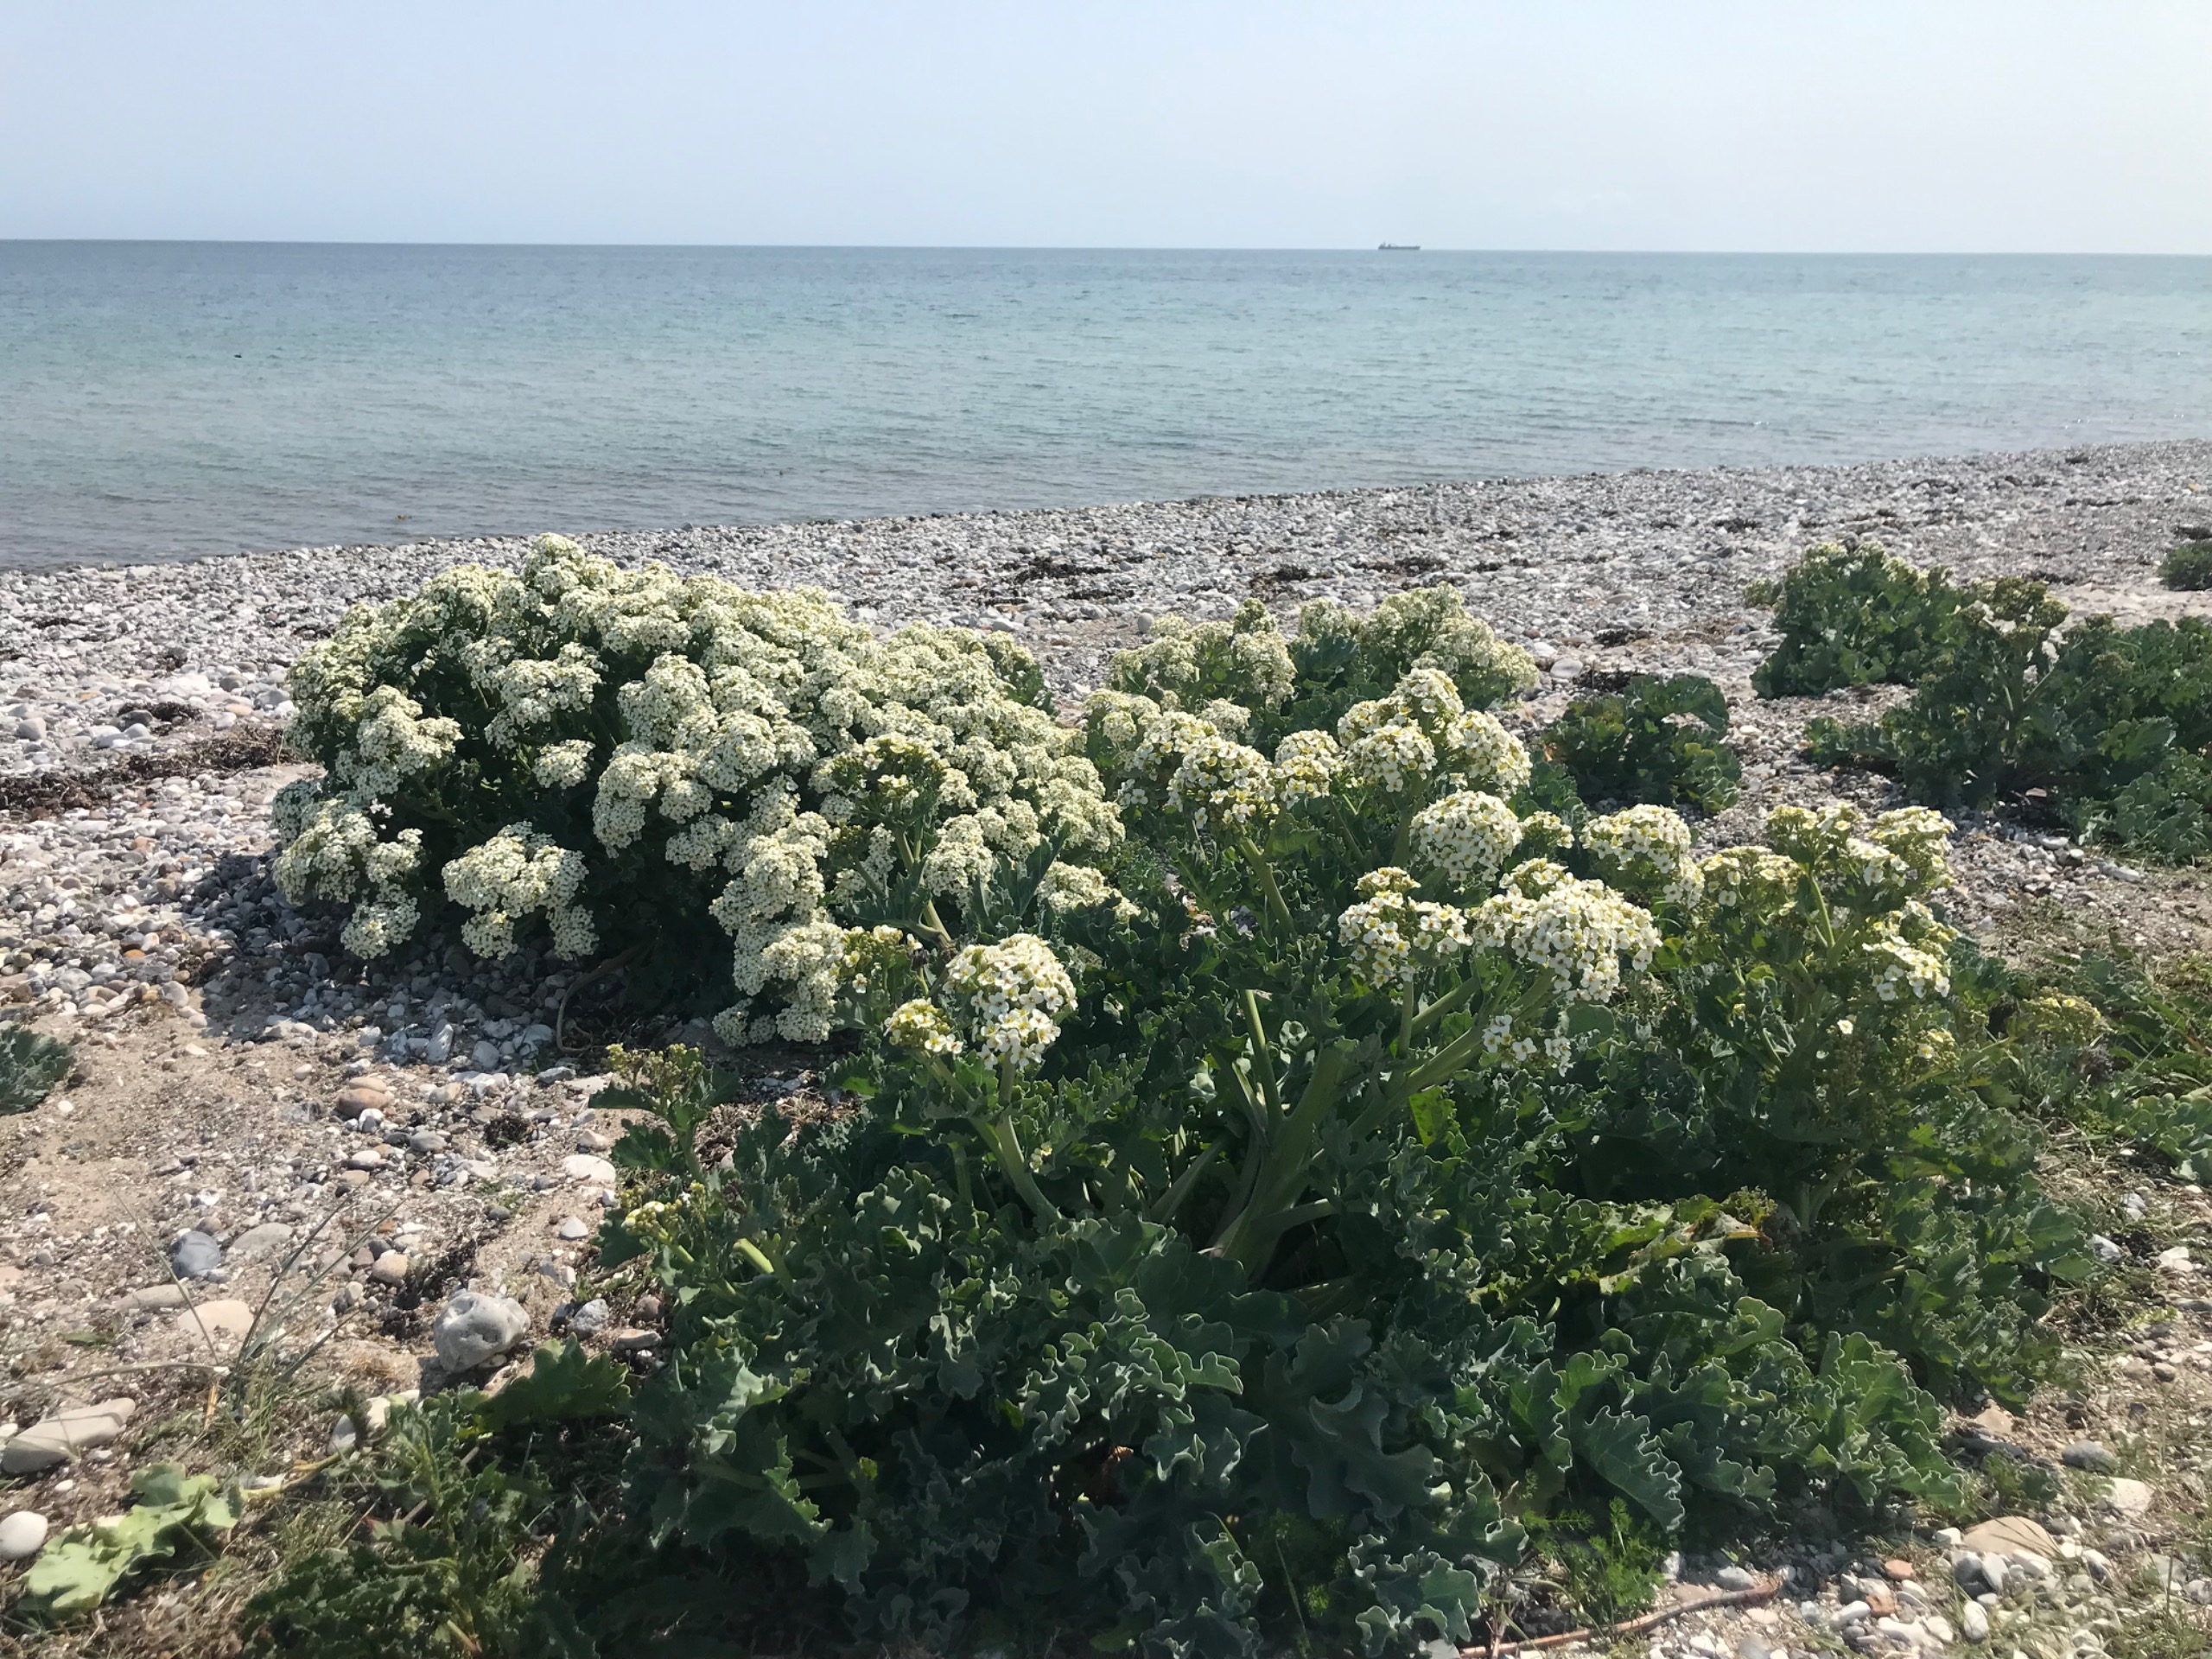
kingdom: Plantae
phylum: Tracheophyta
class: Magnoliopsida
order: Brassicales
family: Brassicaceae
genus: Crambe
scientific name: Crambe maritima
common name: Strandkål
